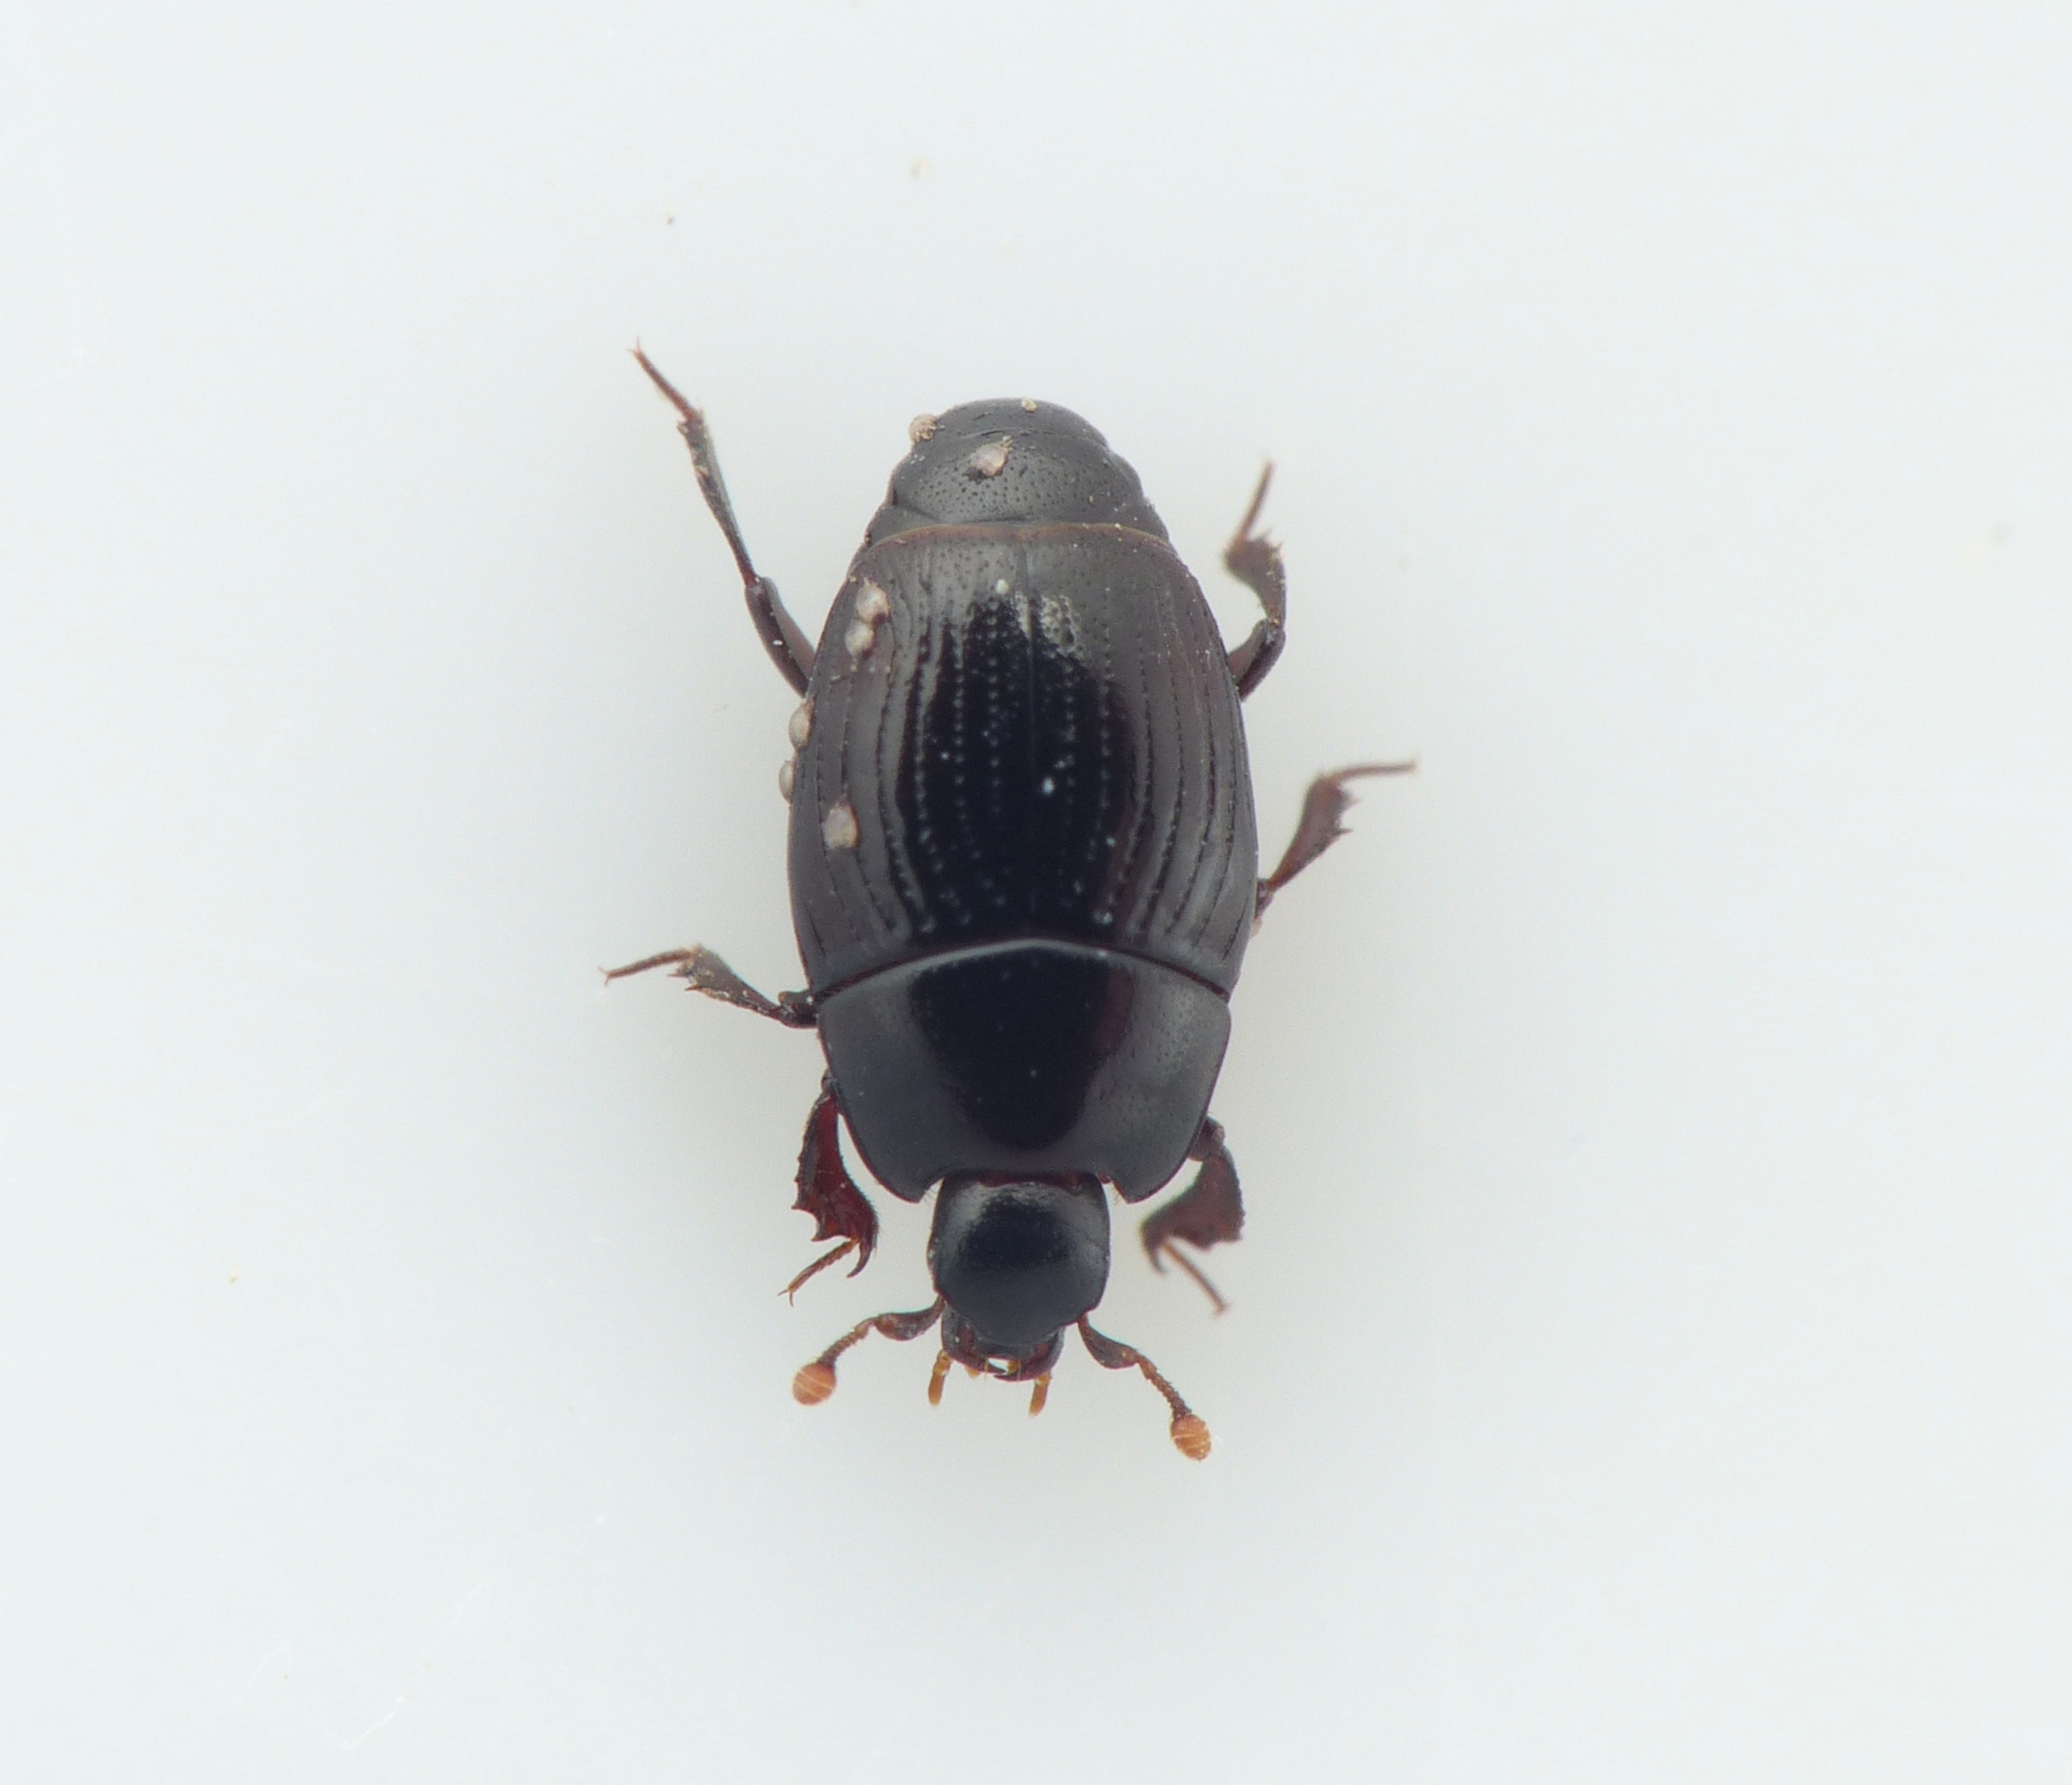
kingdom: Animalia
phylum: Arthropoda
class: Insecta
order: Coleoptera
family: Histeridae
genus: Carcinops
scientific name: Carcinops pumilio
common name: Punktstribet dværgstumpbille
